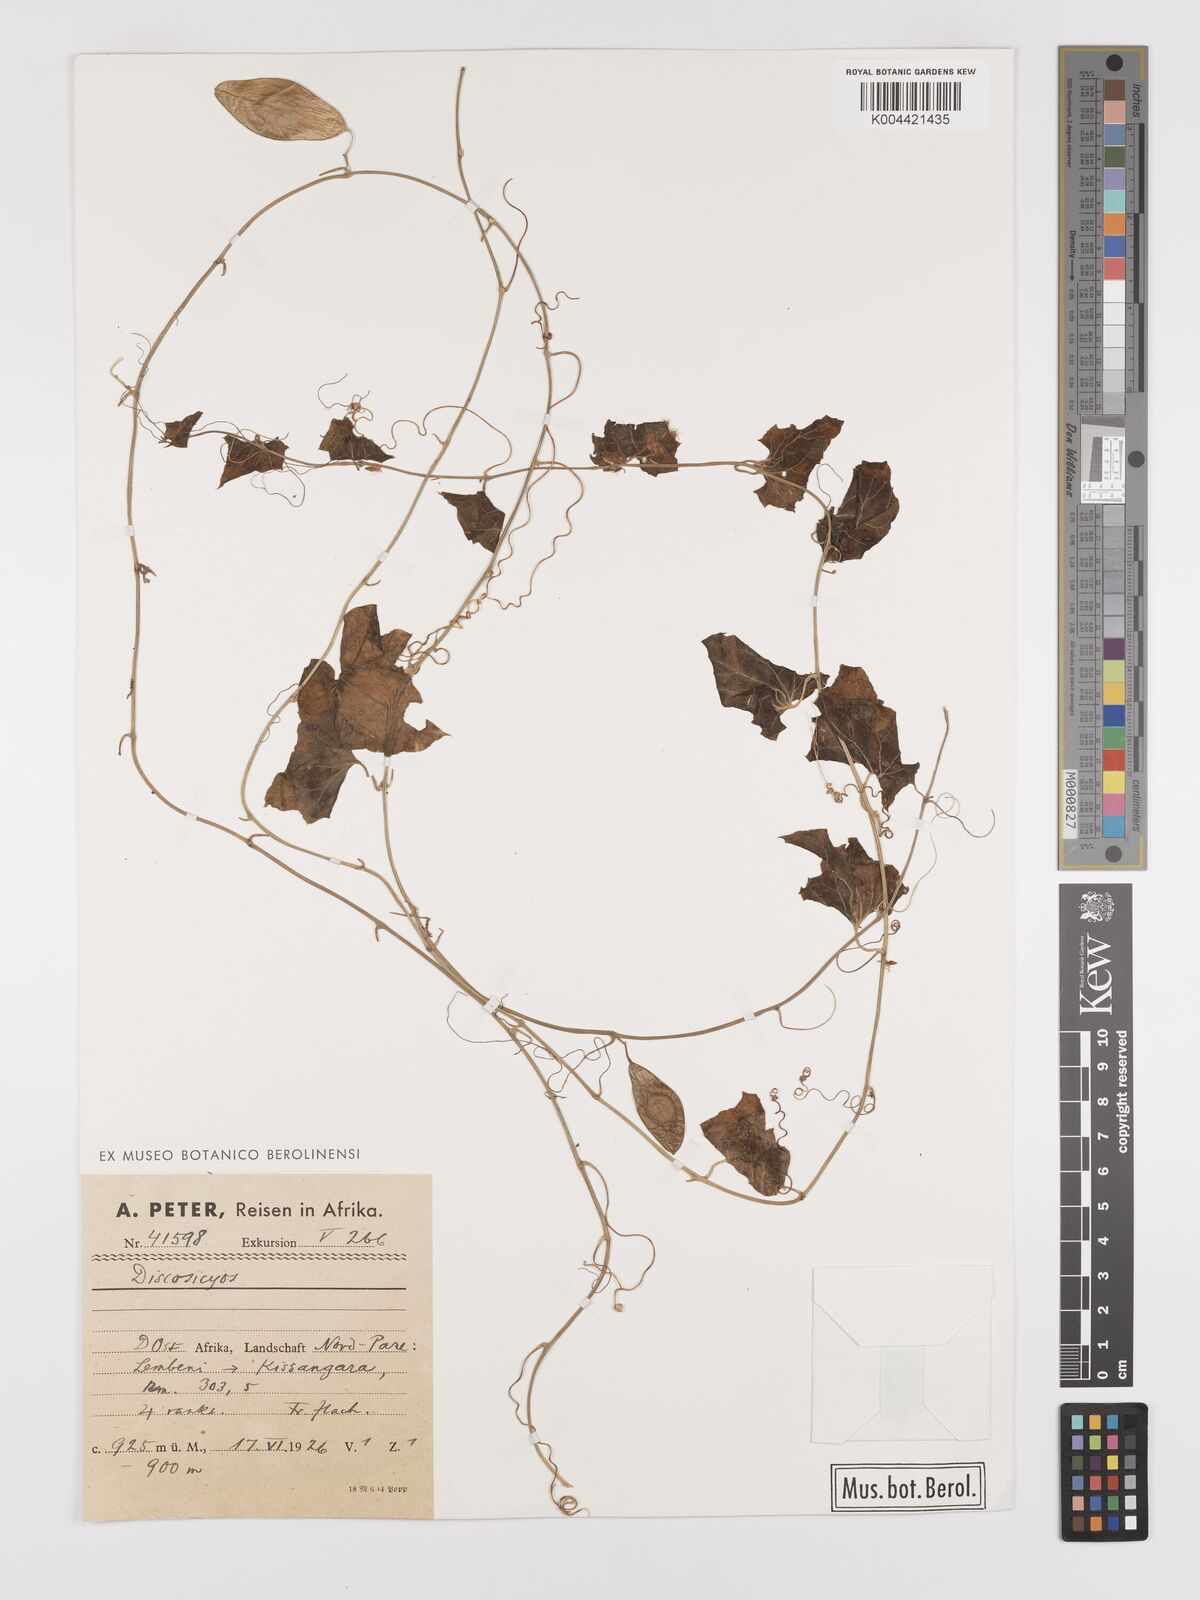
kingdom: Plantae
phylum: Tracheophyta
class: Magnoliopsida
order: Cucurbitales
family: Cucurbitaceae
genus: Cyclantheropsis
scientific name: Cyclantheropsis parviflora
